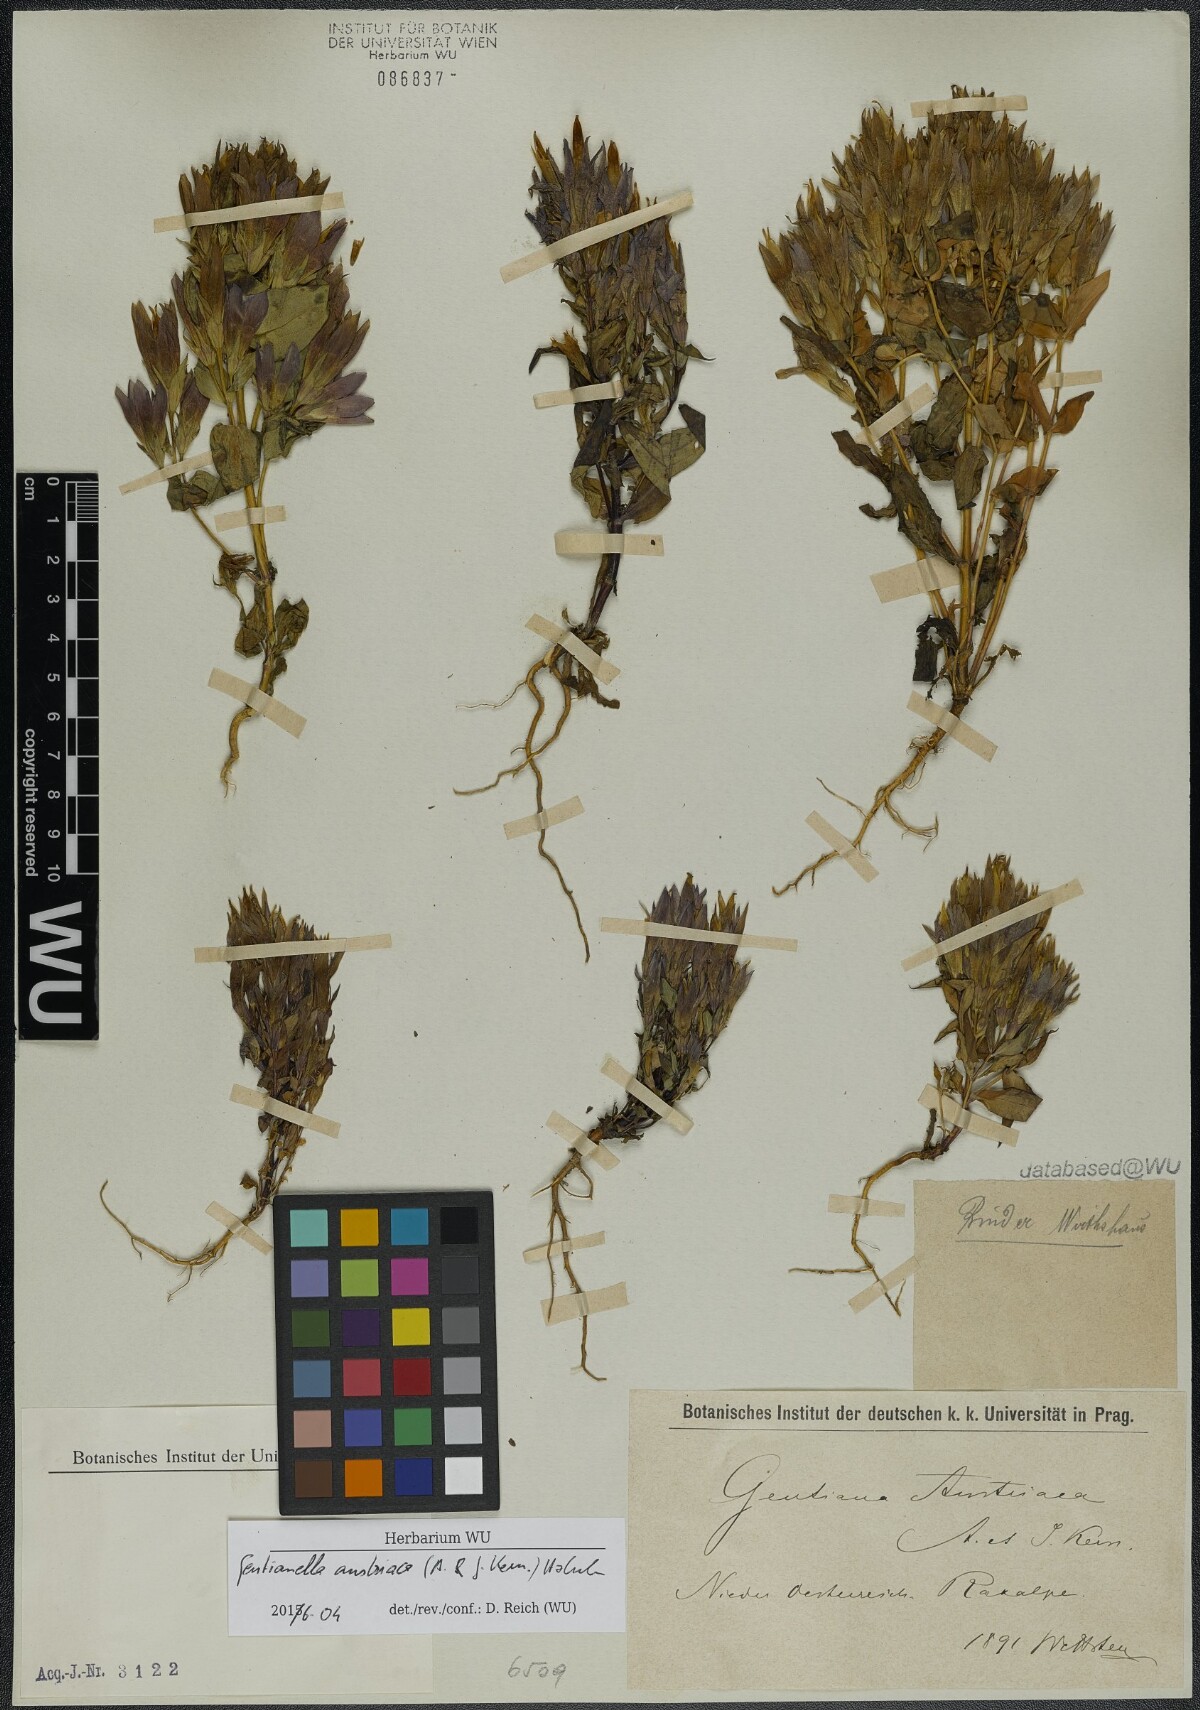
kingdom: Plantae
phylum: Tracheophyta
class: Magnoliopsida
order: Gentianales
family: Gentianaceae
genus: Gentianella
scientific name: Gentianella austriaca
